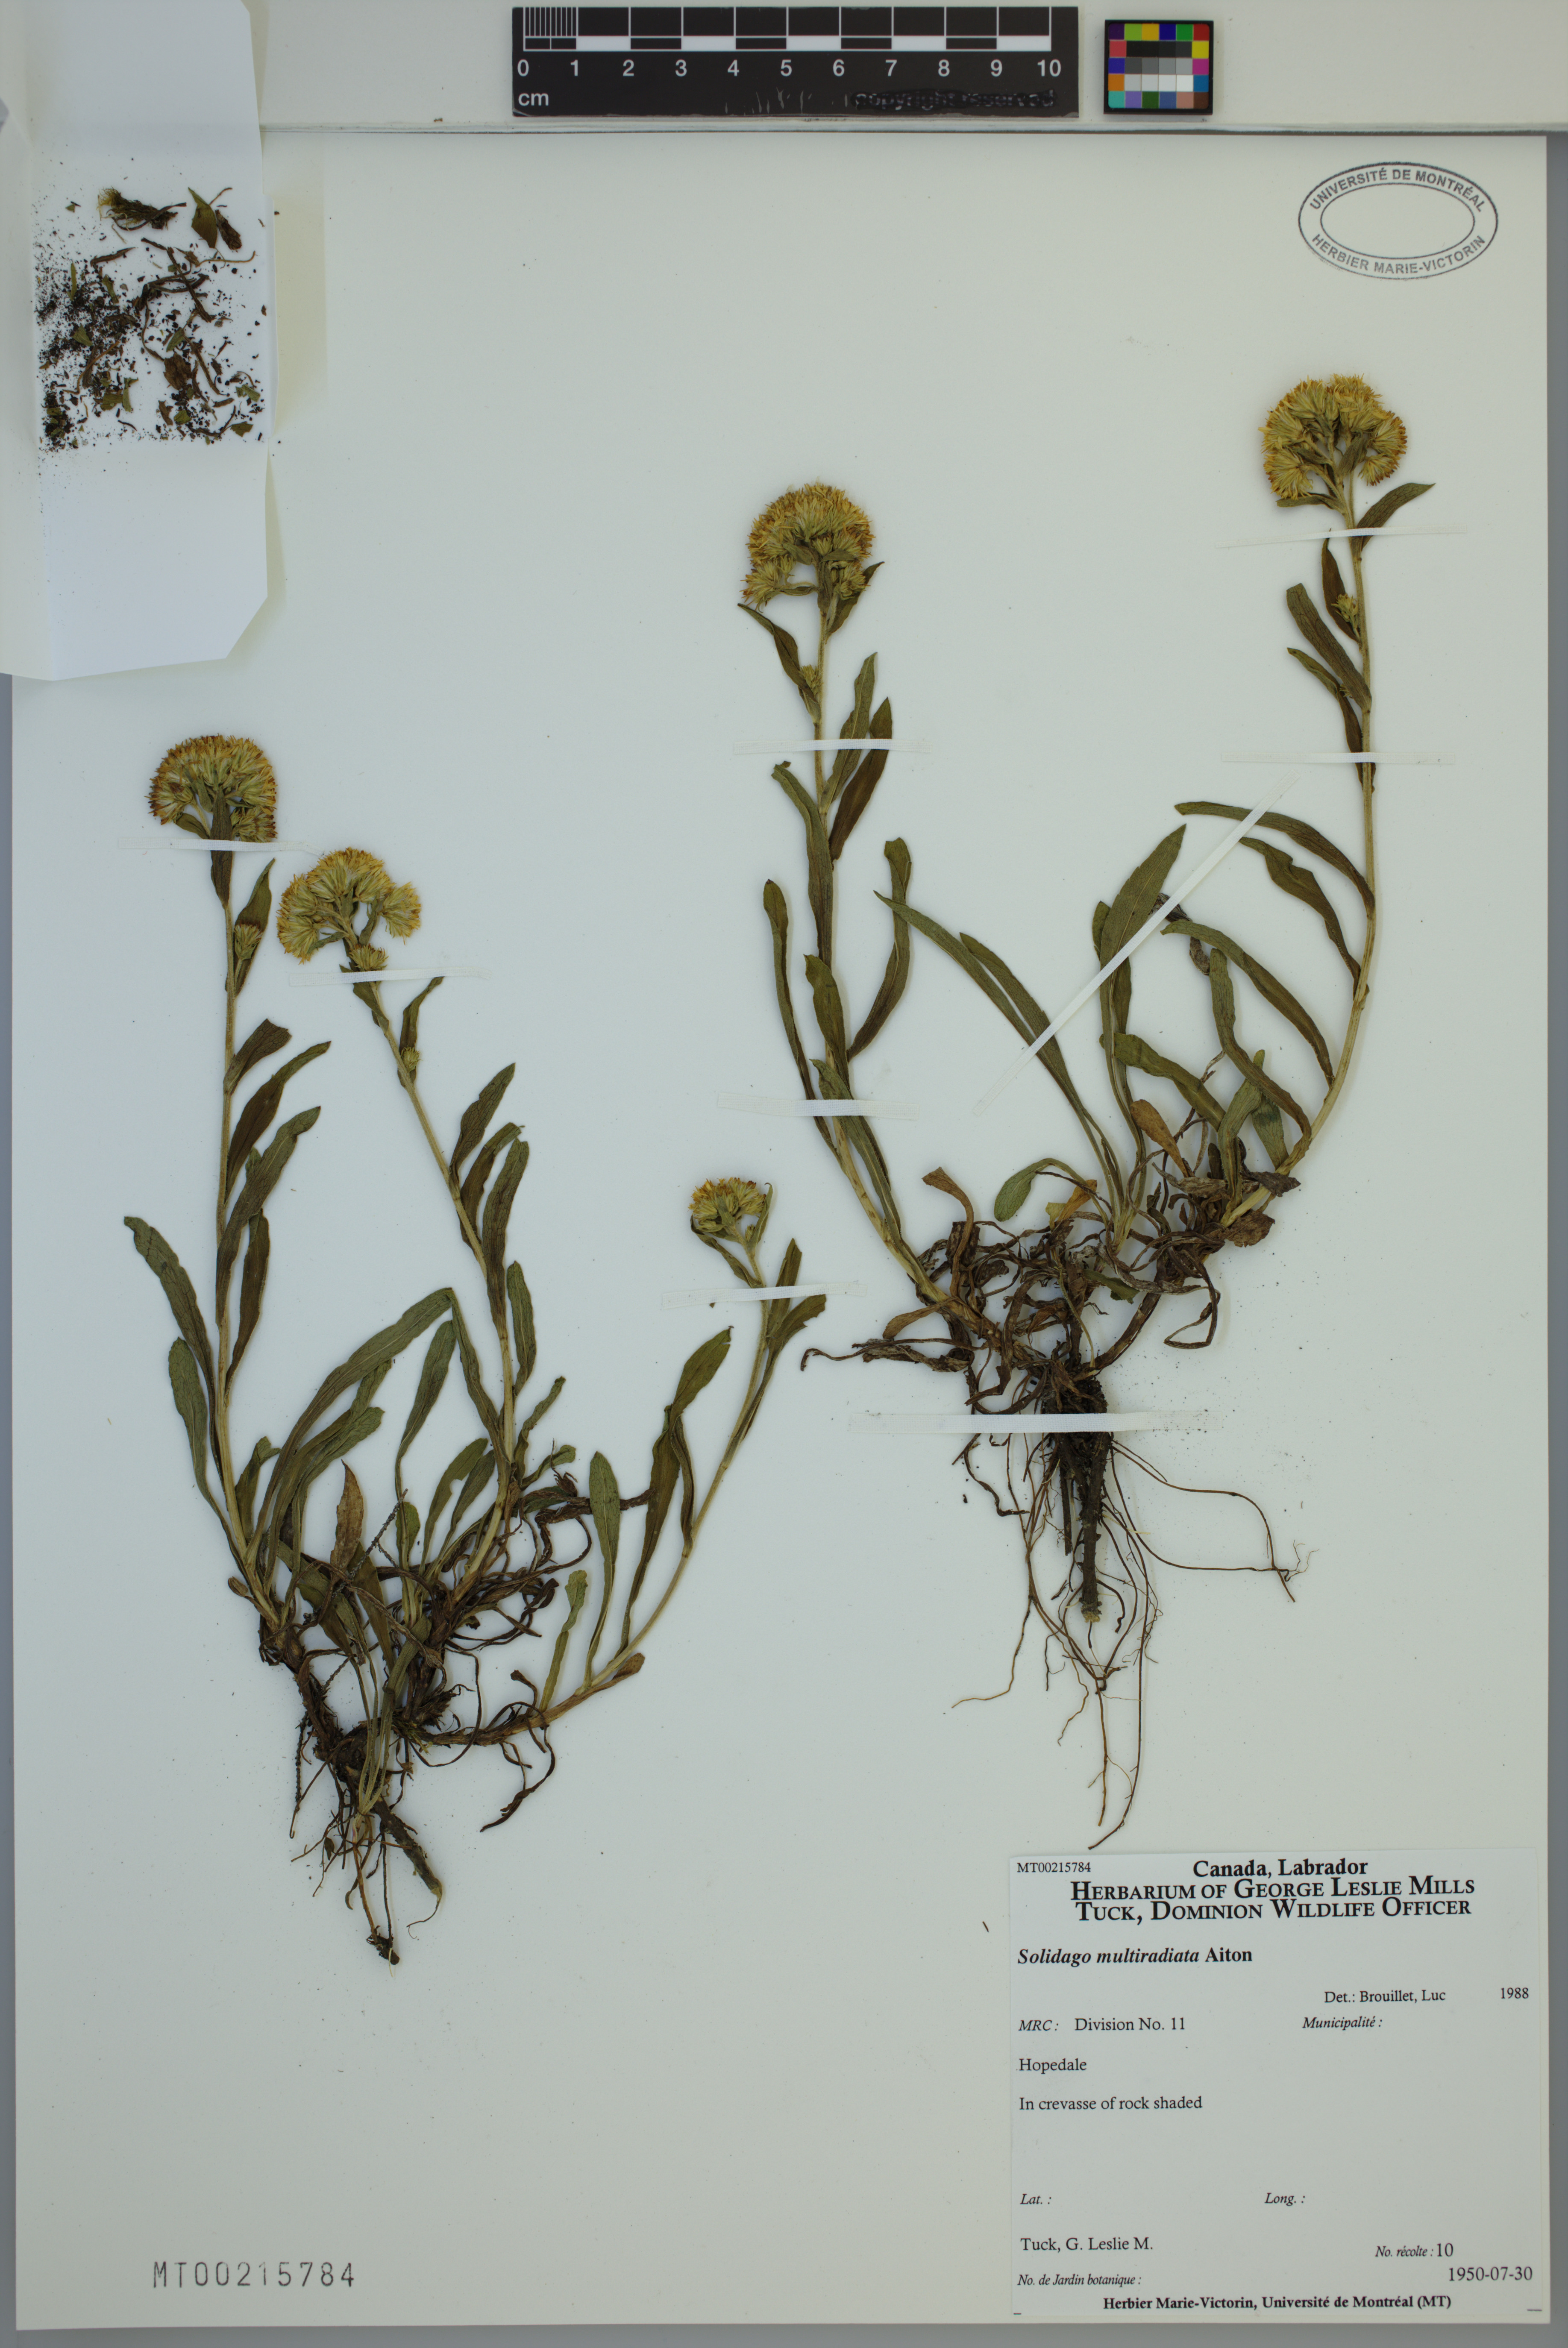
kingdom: Plantae
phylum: Tracheophyta
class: Magnoliopsida
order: Asterales
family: Asteraceae
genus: Solidago
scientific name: Solidago multiradiata
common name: Northern goldenrod
